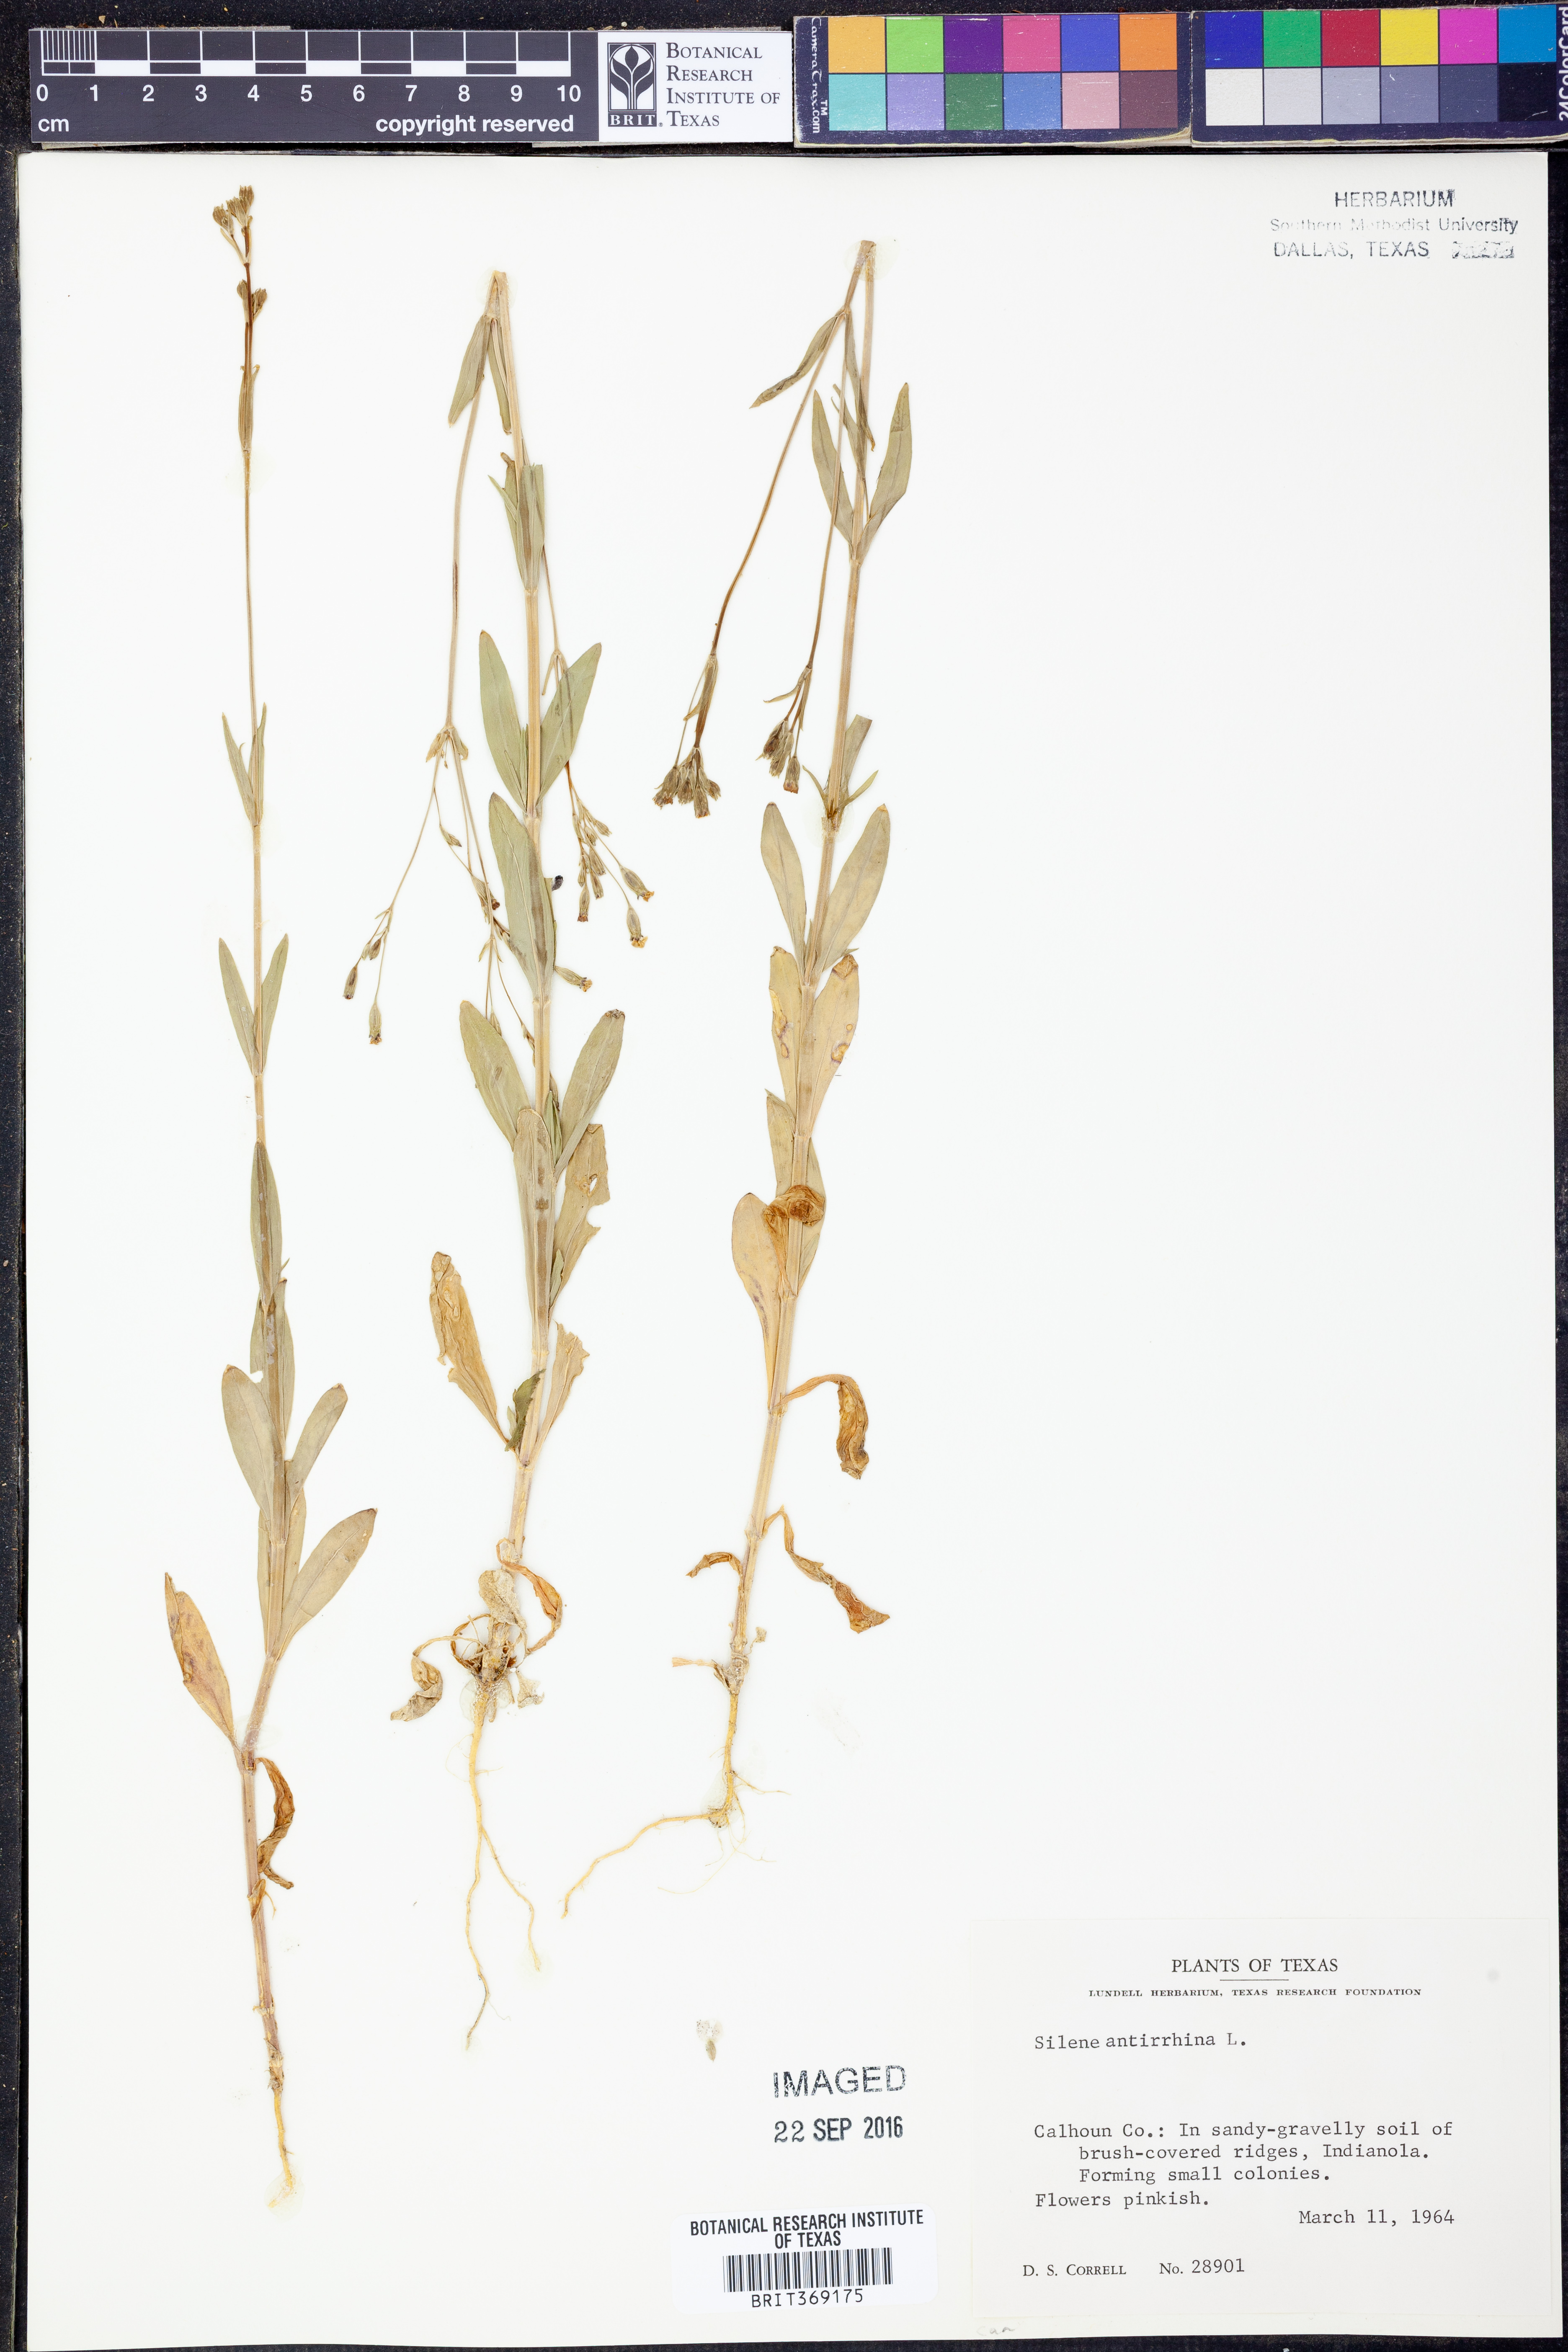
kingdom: Plantae
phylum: Tracheophyta
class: Magnoliopsida
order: Caryophyllales
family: Caryophyllaceae
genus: Silene
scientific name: Silene antirrhina
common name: Sleepy catchfly
